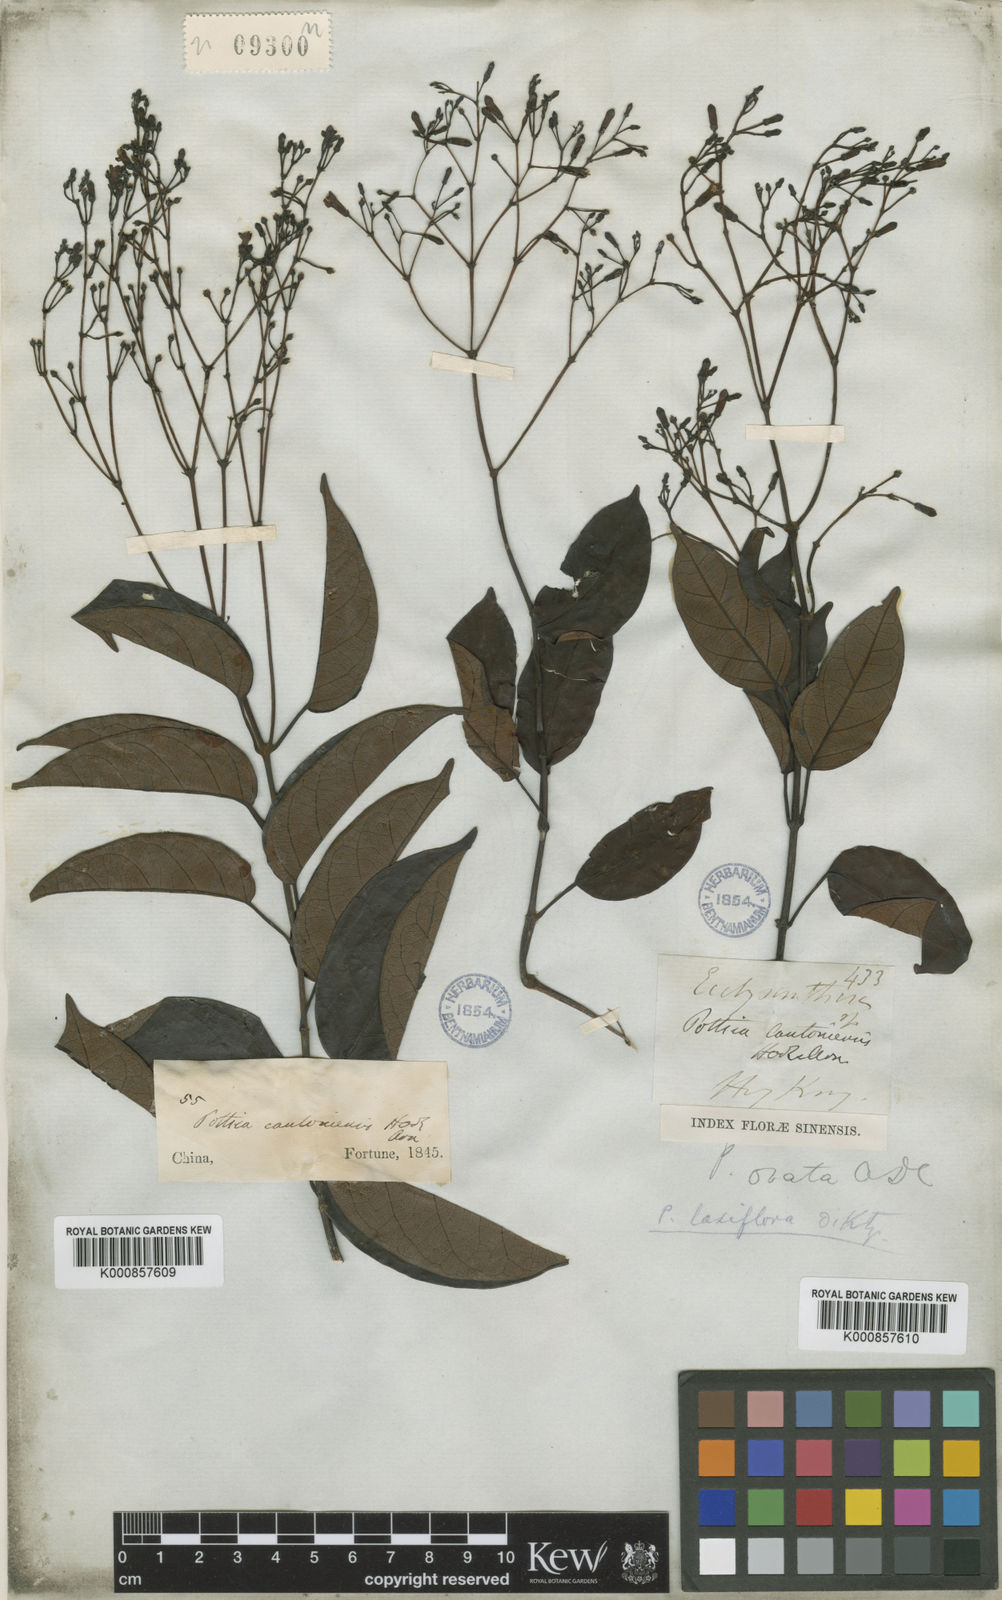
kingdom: Plantae
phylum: Tracheophyta
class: Magnoliopsida
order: Gentianales
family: Apocynaceae
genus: Pottsia
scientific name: Pottsia laxiflora
